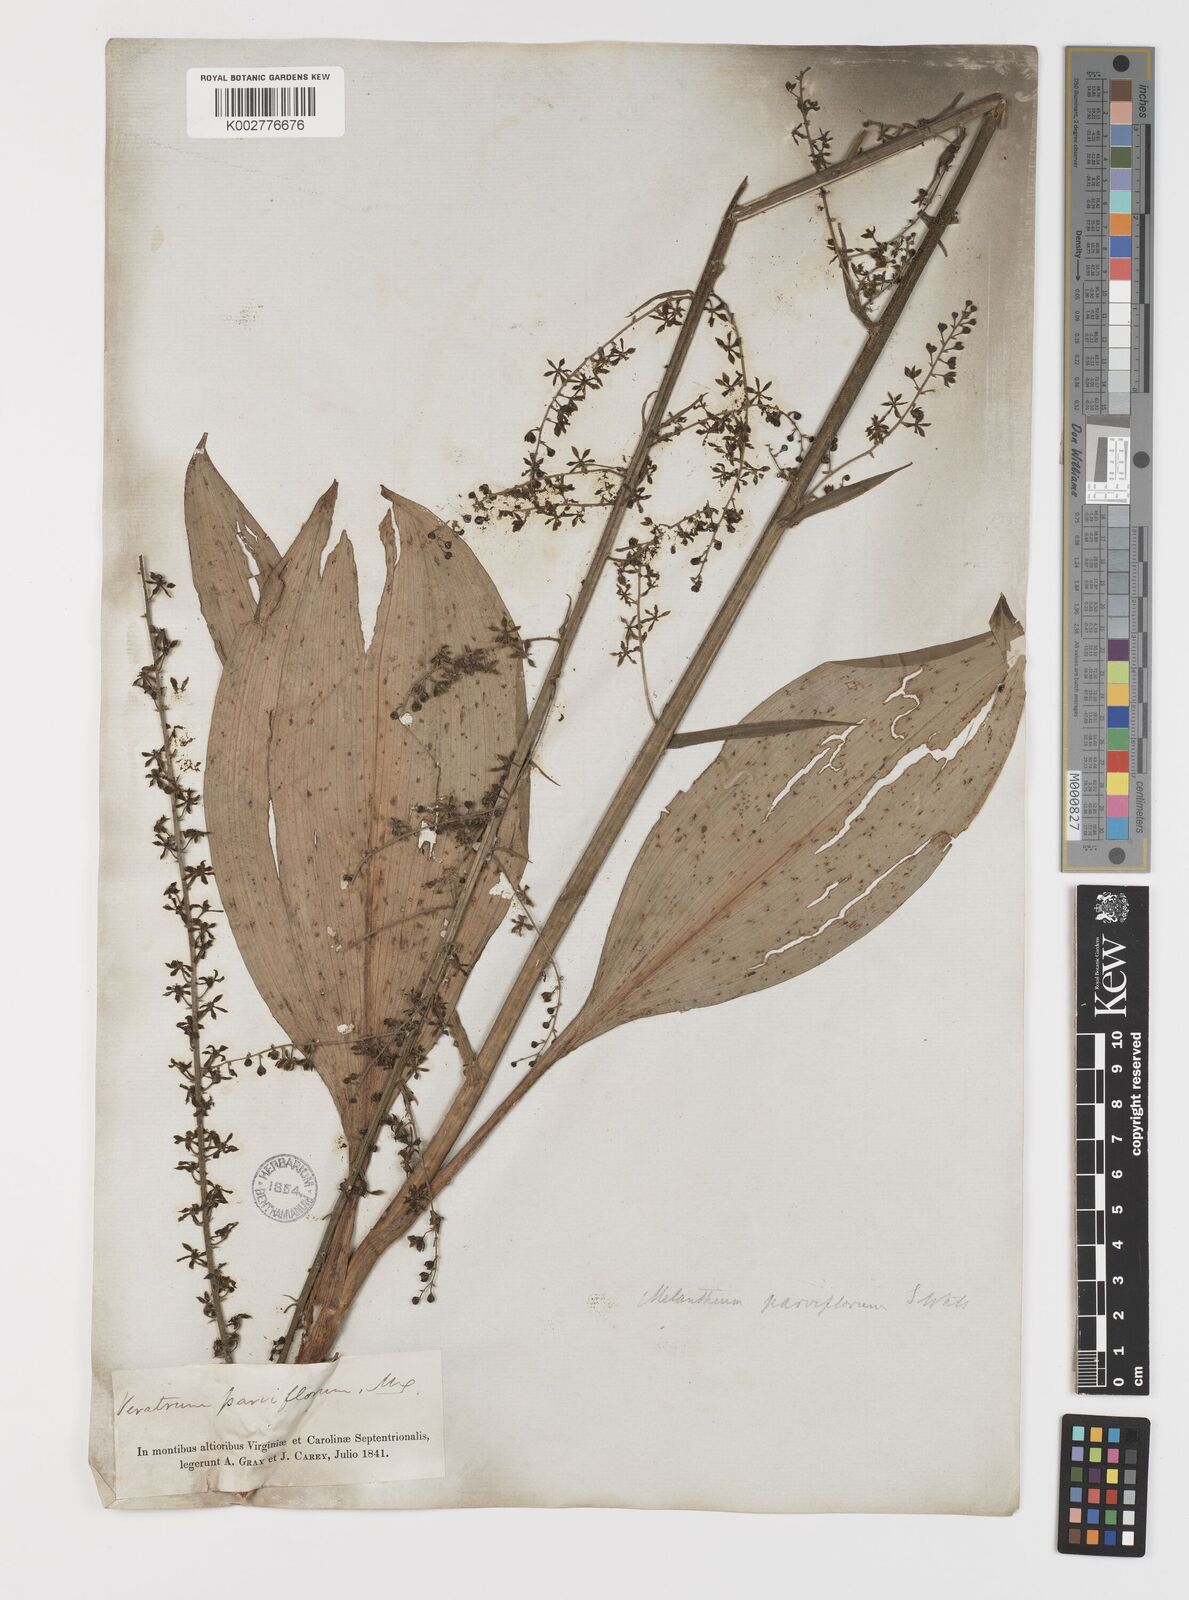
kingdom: Plantae
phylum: Tracheophyta
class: Liliopsida
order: Liliales
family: Melanthiaceae
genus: Melanthium
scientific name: Melanthium parviflorum
